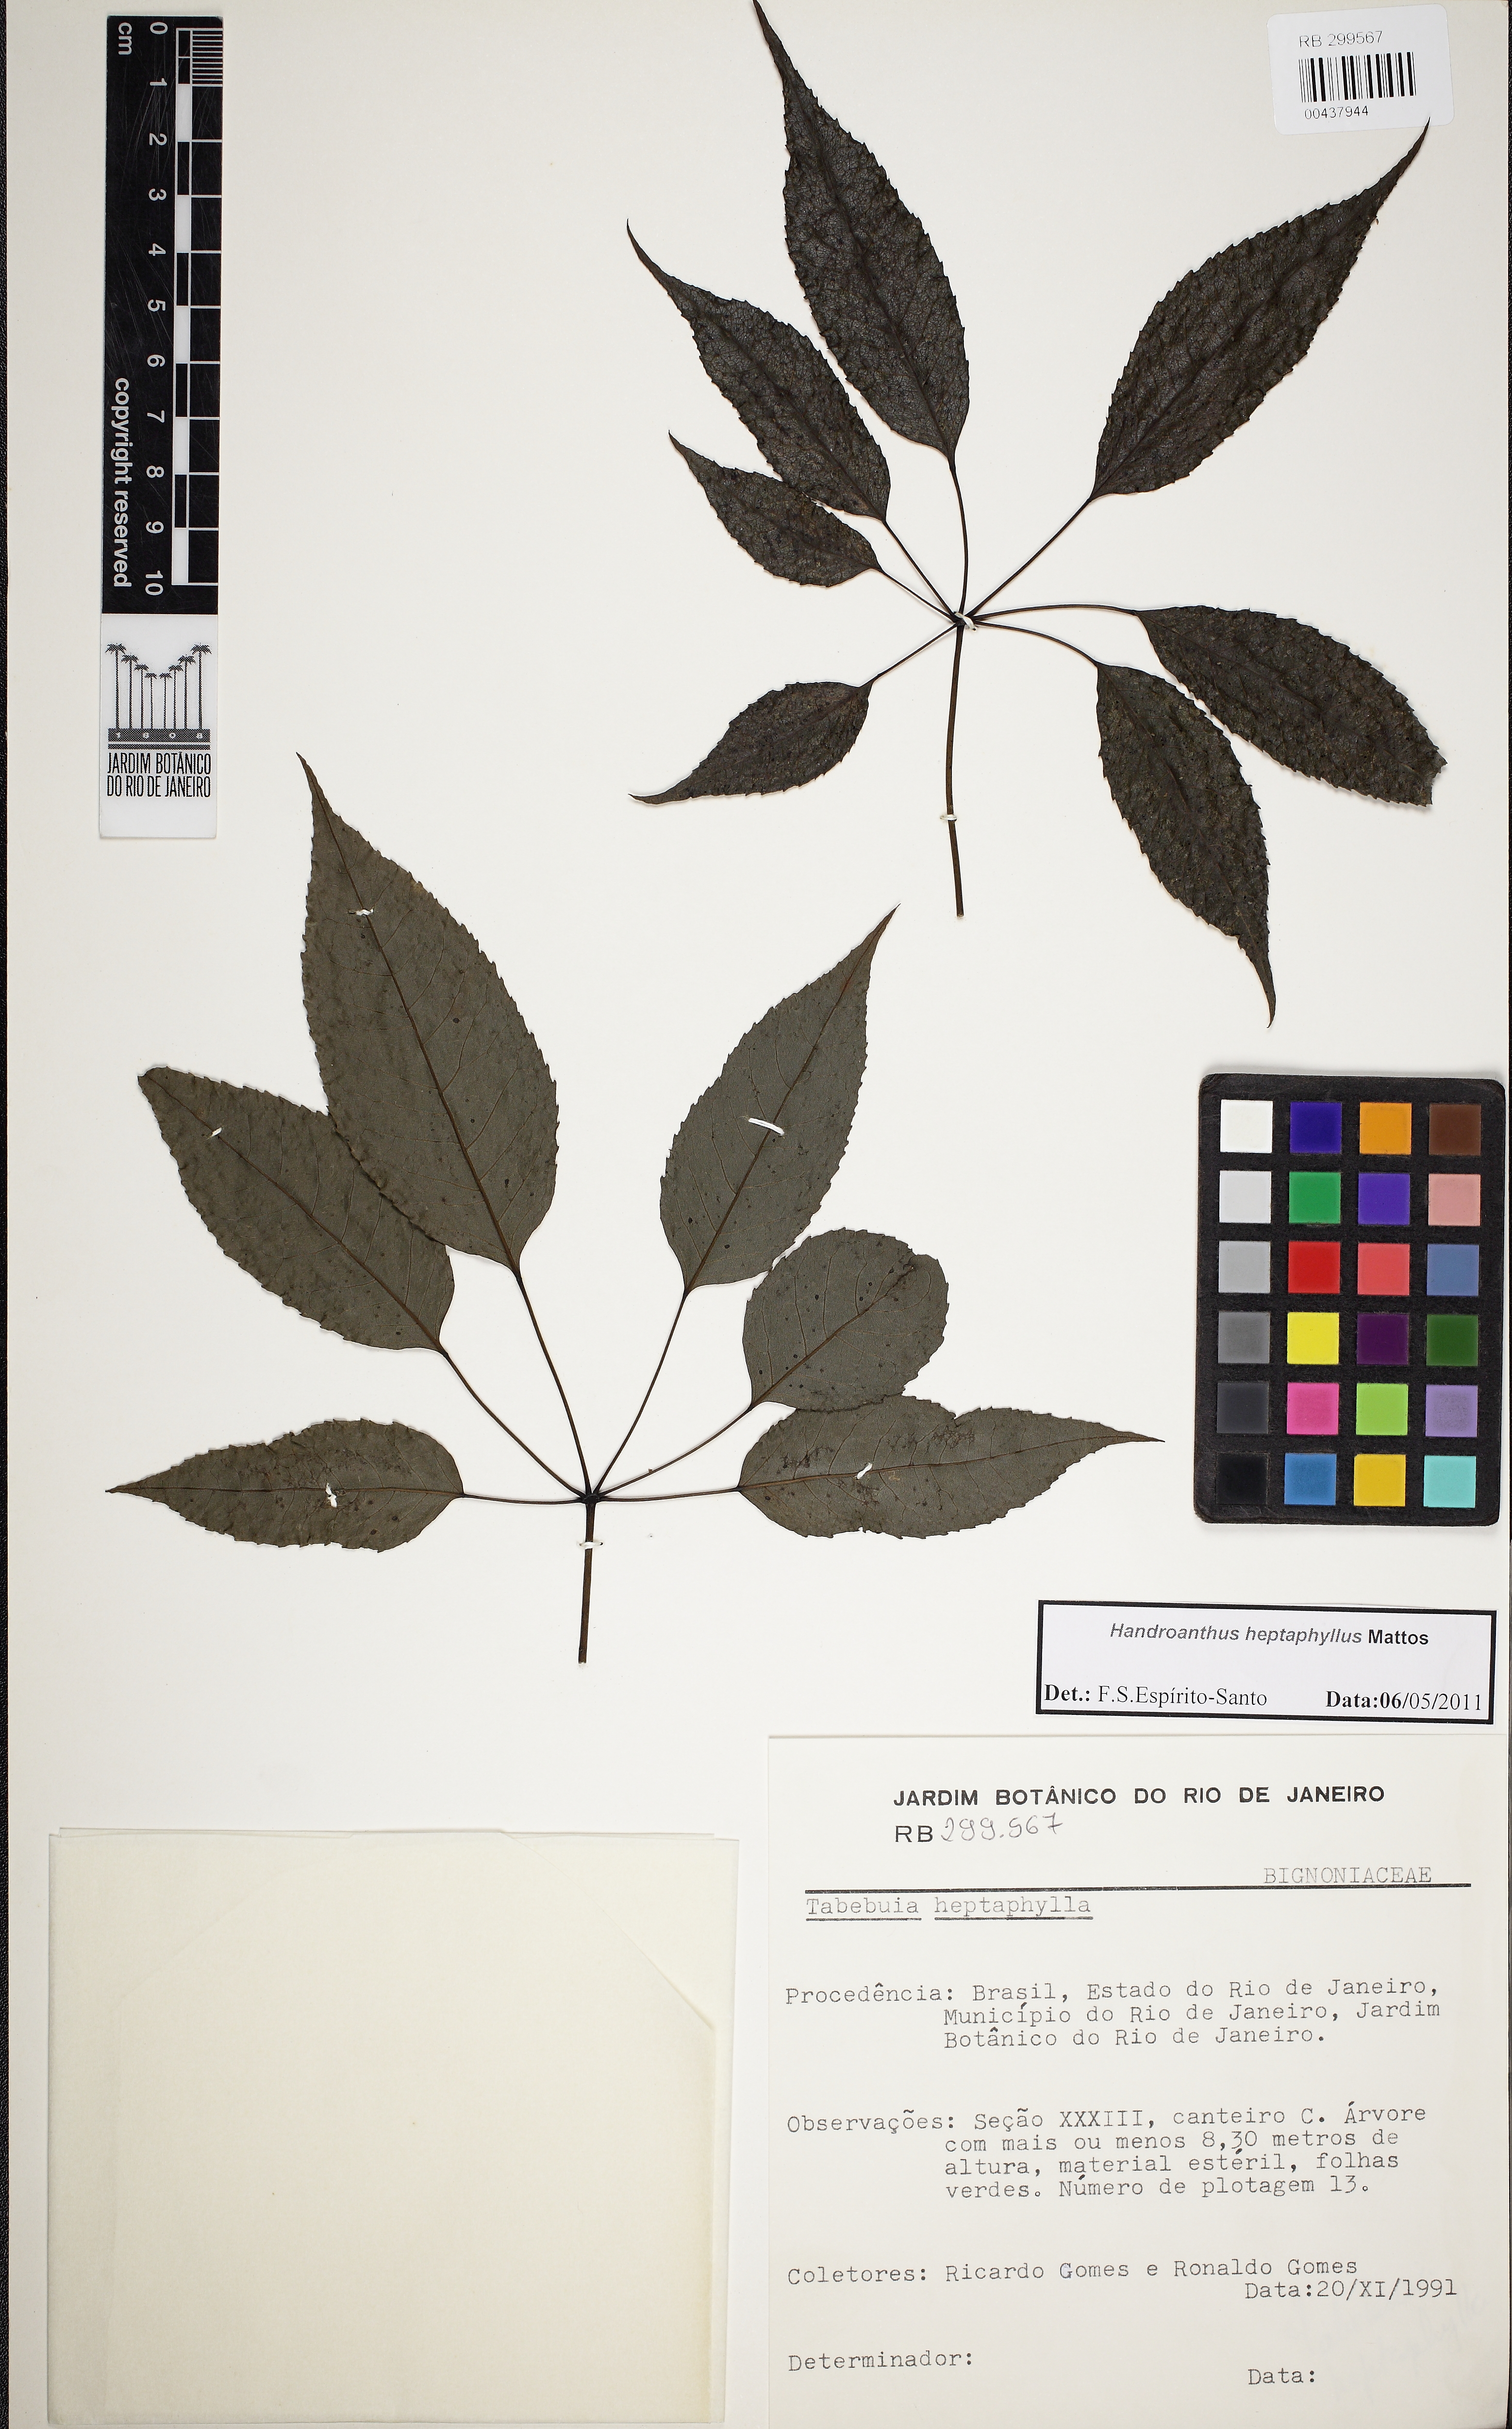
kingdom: Plantae
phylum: Tracheophyta
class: Magnoliopsida
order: Lamiales
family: Bignoniaceae
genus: Handroanthus
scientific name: Handroanthus heptaphyllus
